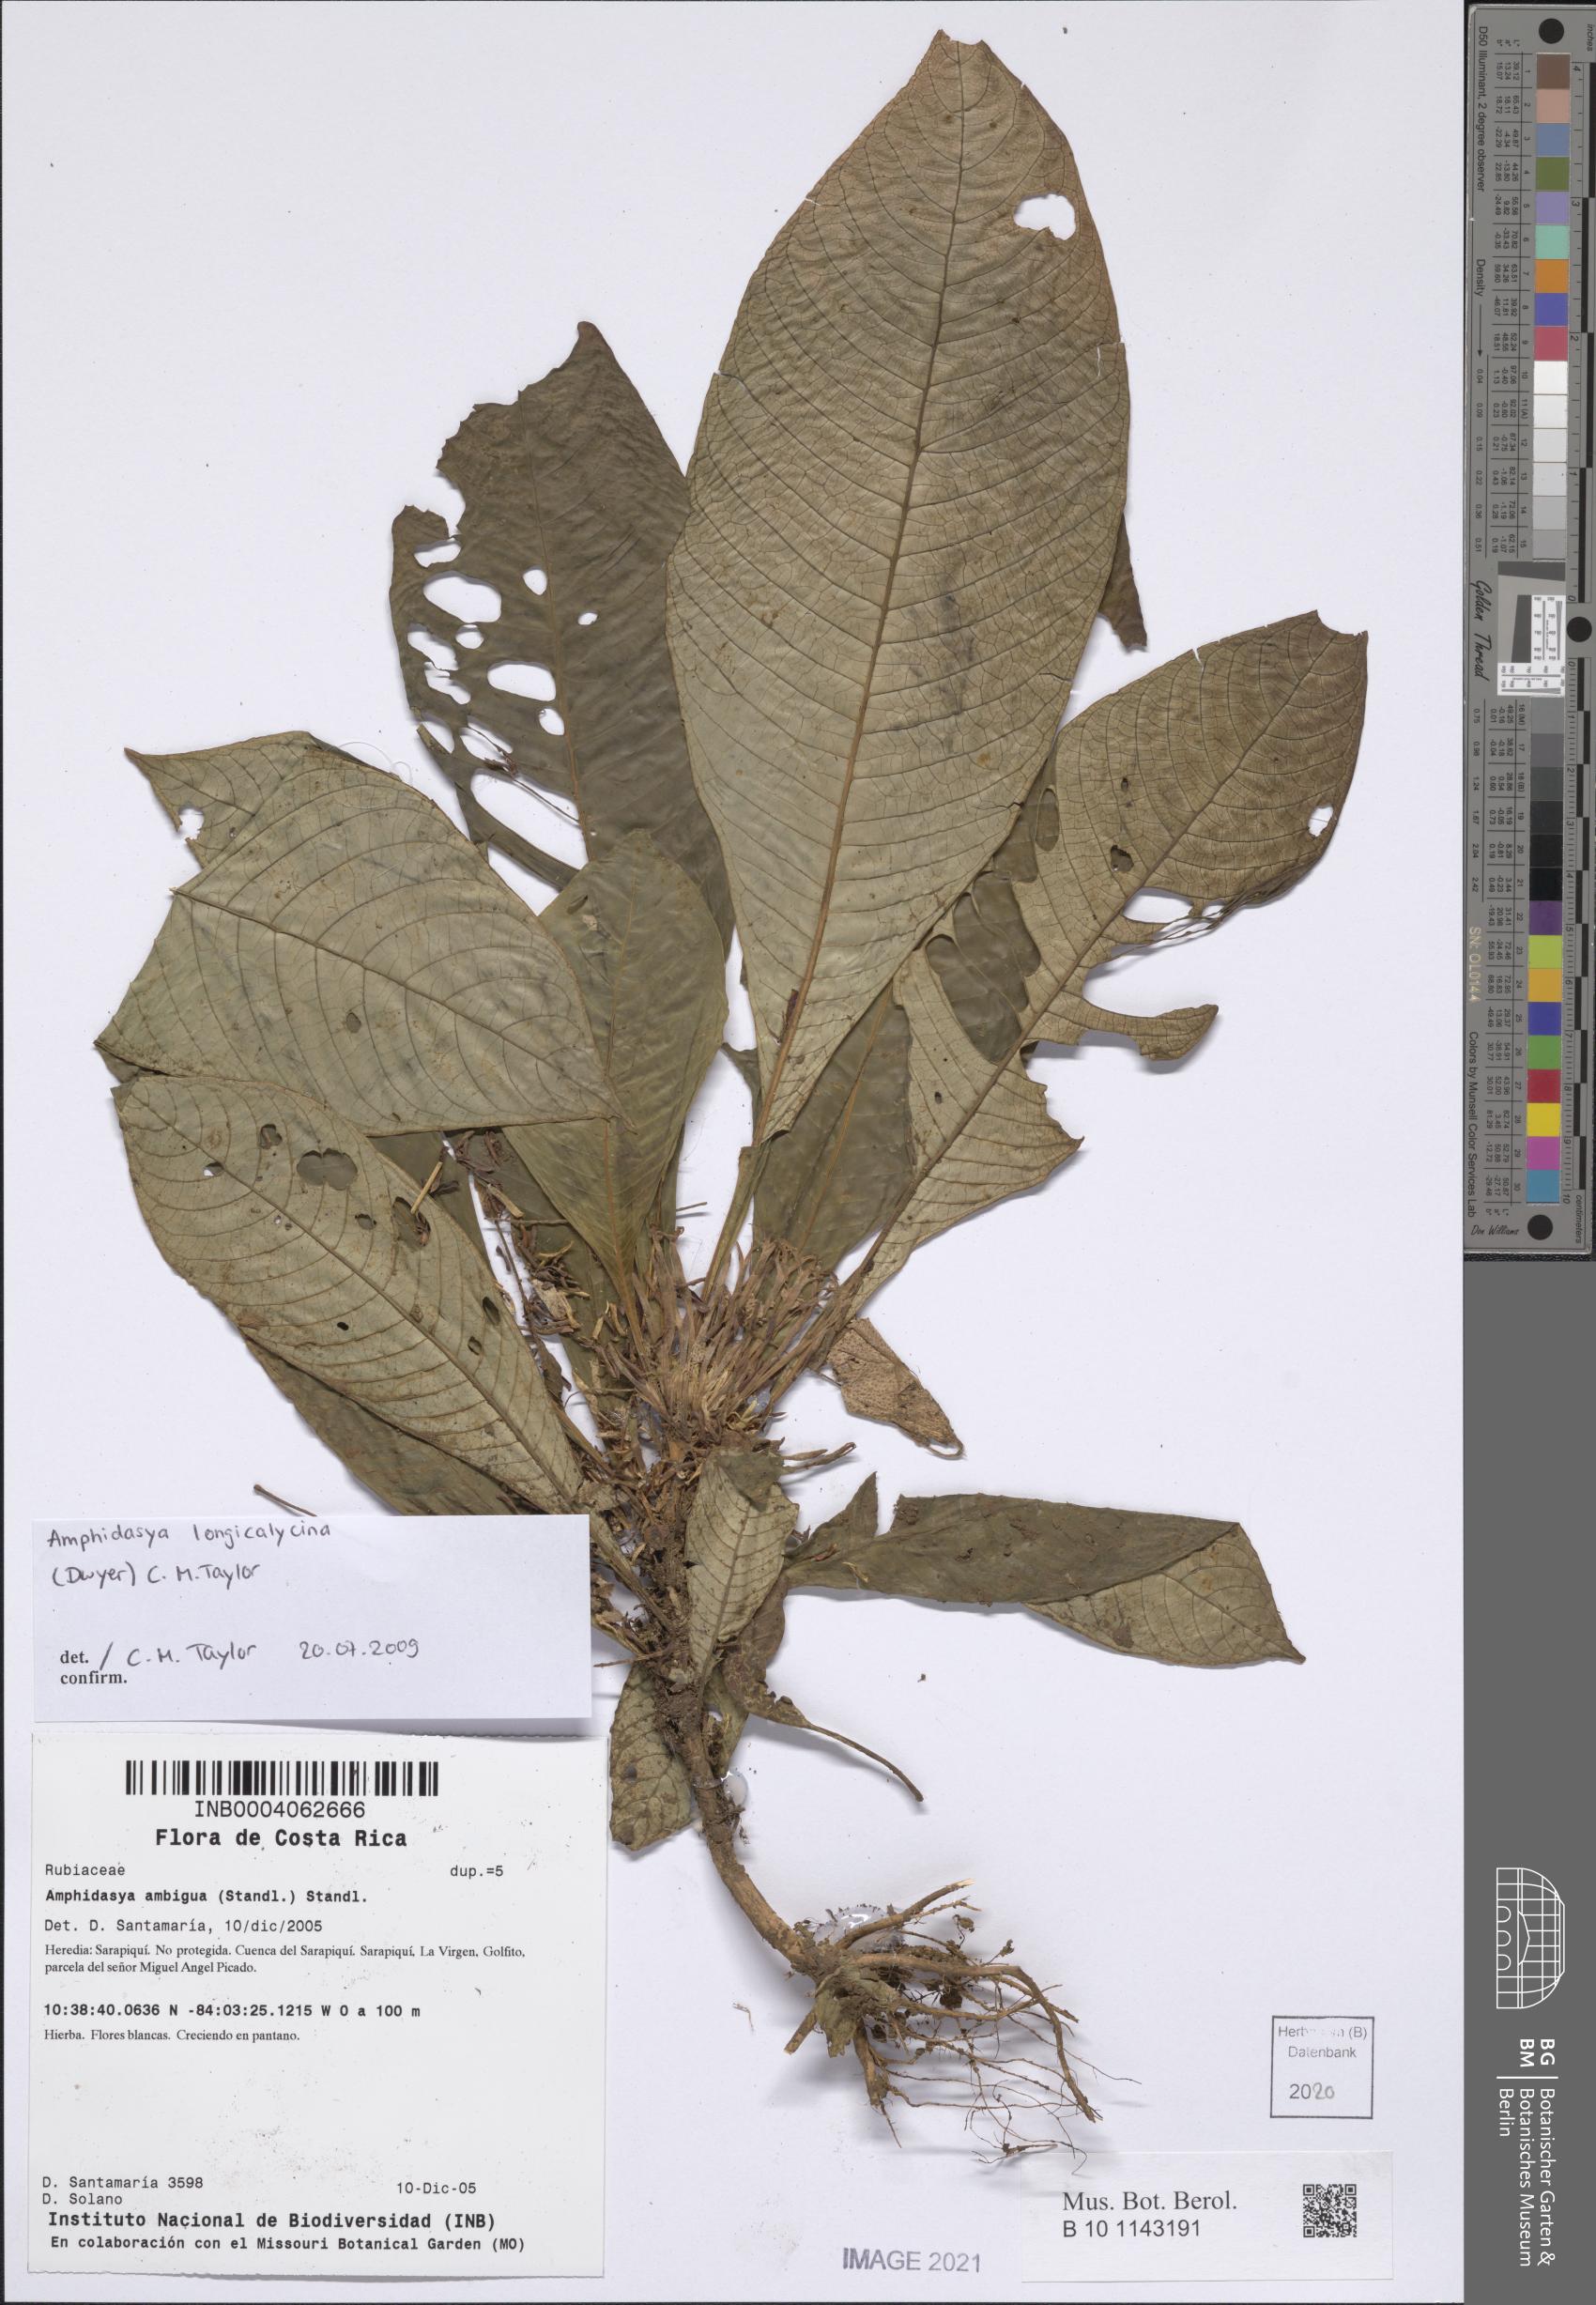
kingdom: Plantae
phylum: Tracheophyta
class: Magnoliopsida
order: Gentianales
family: Rubiaceae
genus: Amphidasya
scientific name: Amphidasya longicalycina
